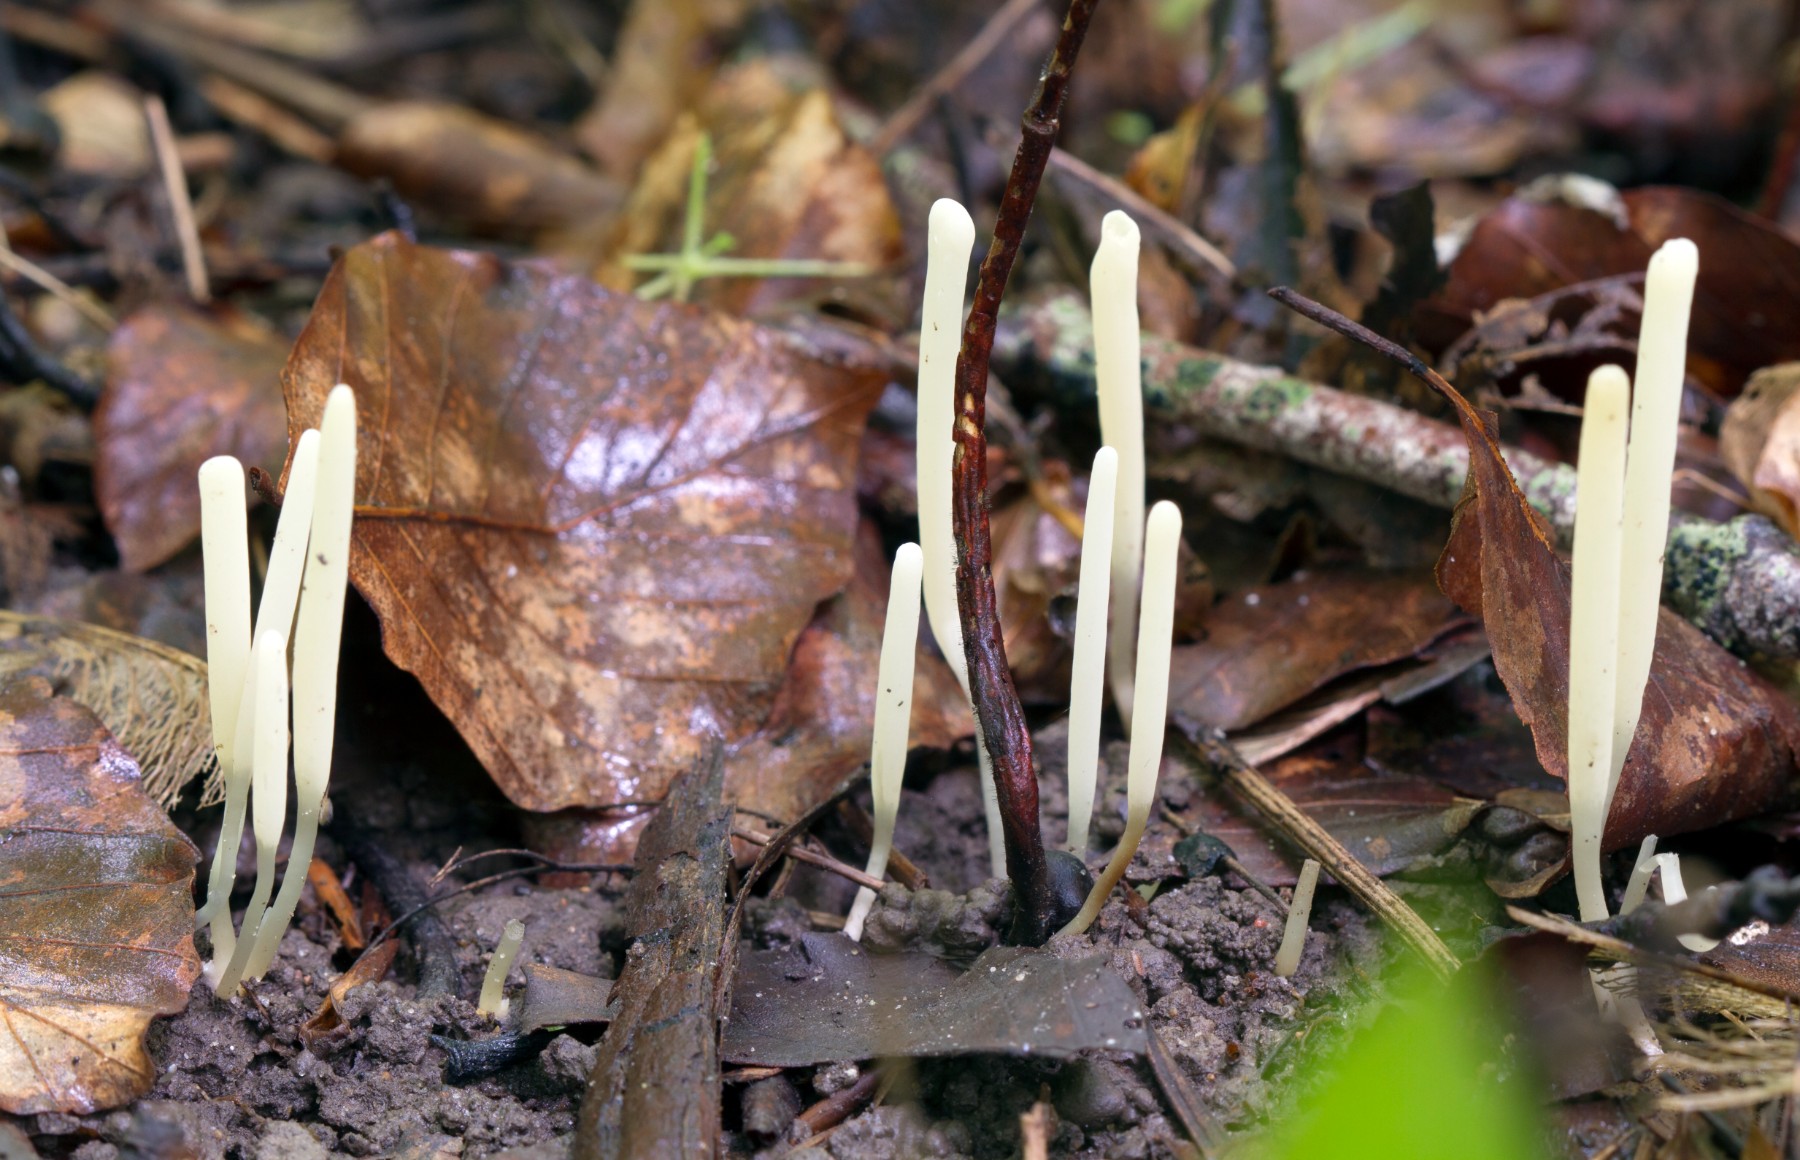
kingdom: Fungi
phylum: Basidiomycota
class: Agaricomycetes
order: Agaricales
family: Clavariaceae
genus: Clavaria
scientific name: Clavaria falcata
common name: hvid køllesvamp
